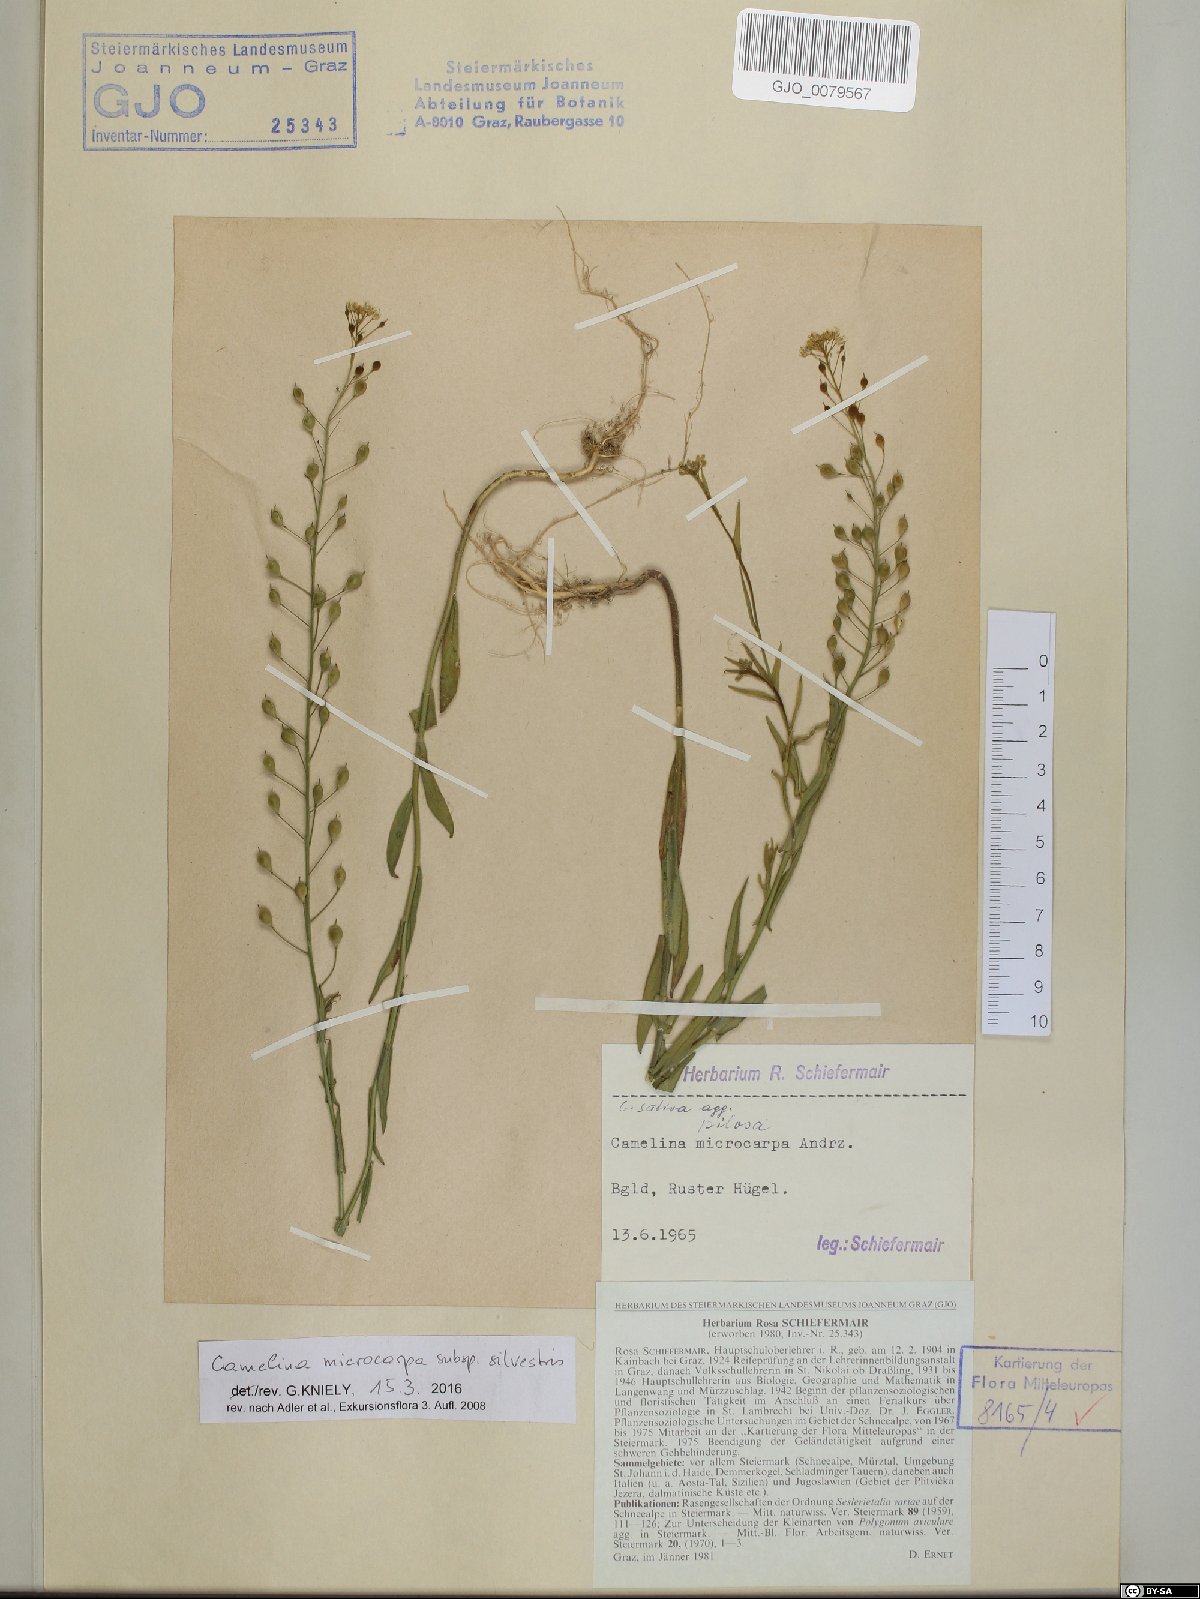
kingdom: Plantae
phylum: Tracheophyta
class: Magnoliopsida
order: Brassicales
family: Brassicaceae
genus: Camelina
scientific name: Camelina microcarpa
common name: Lesser gold-of-pleasure
